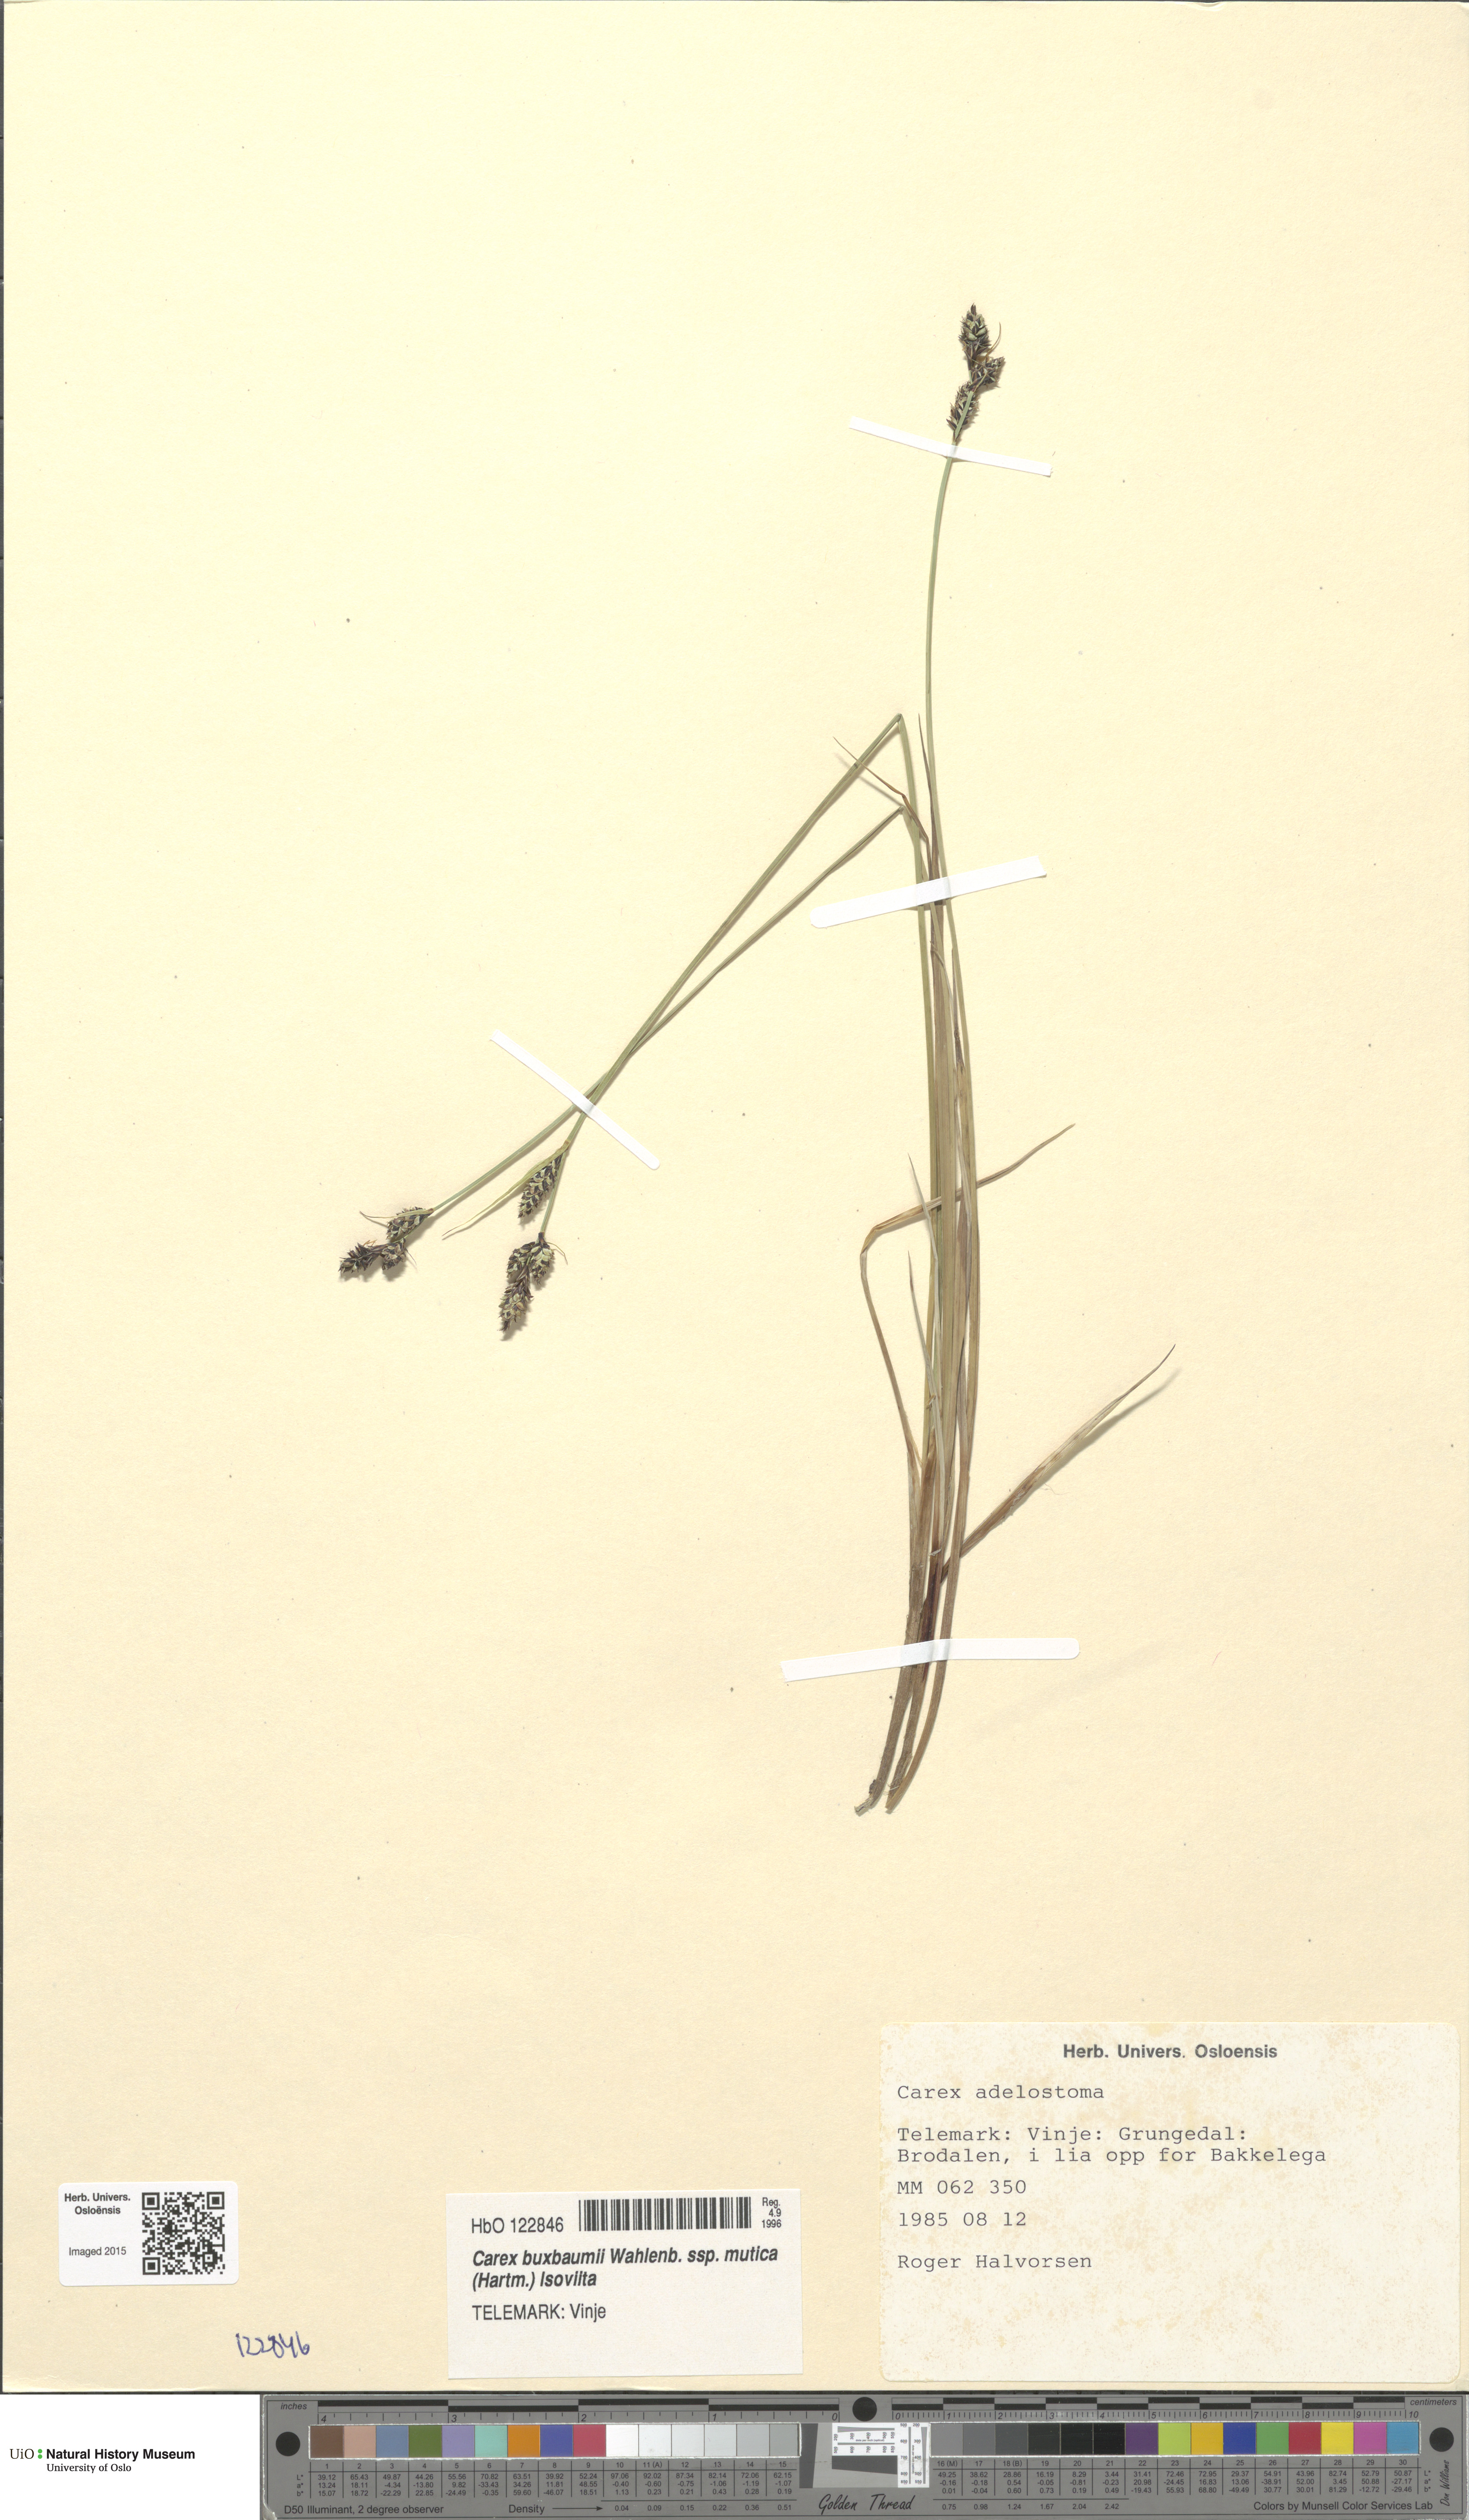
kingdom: Plantae
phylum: Tracheophyta
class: Liliopsida
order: Poales
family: Cyperaceae
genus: Carex
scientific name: Carex adelostoma
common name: Circumpolar sedge
